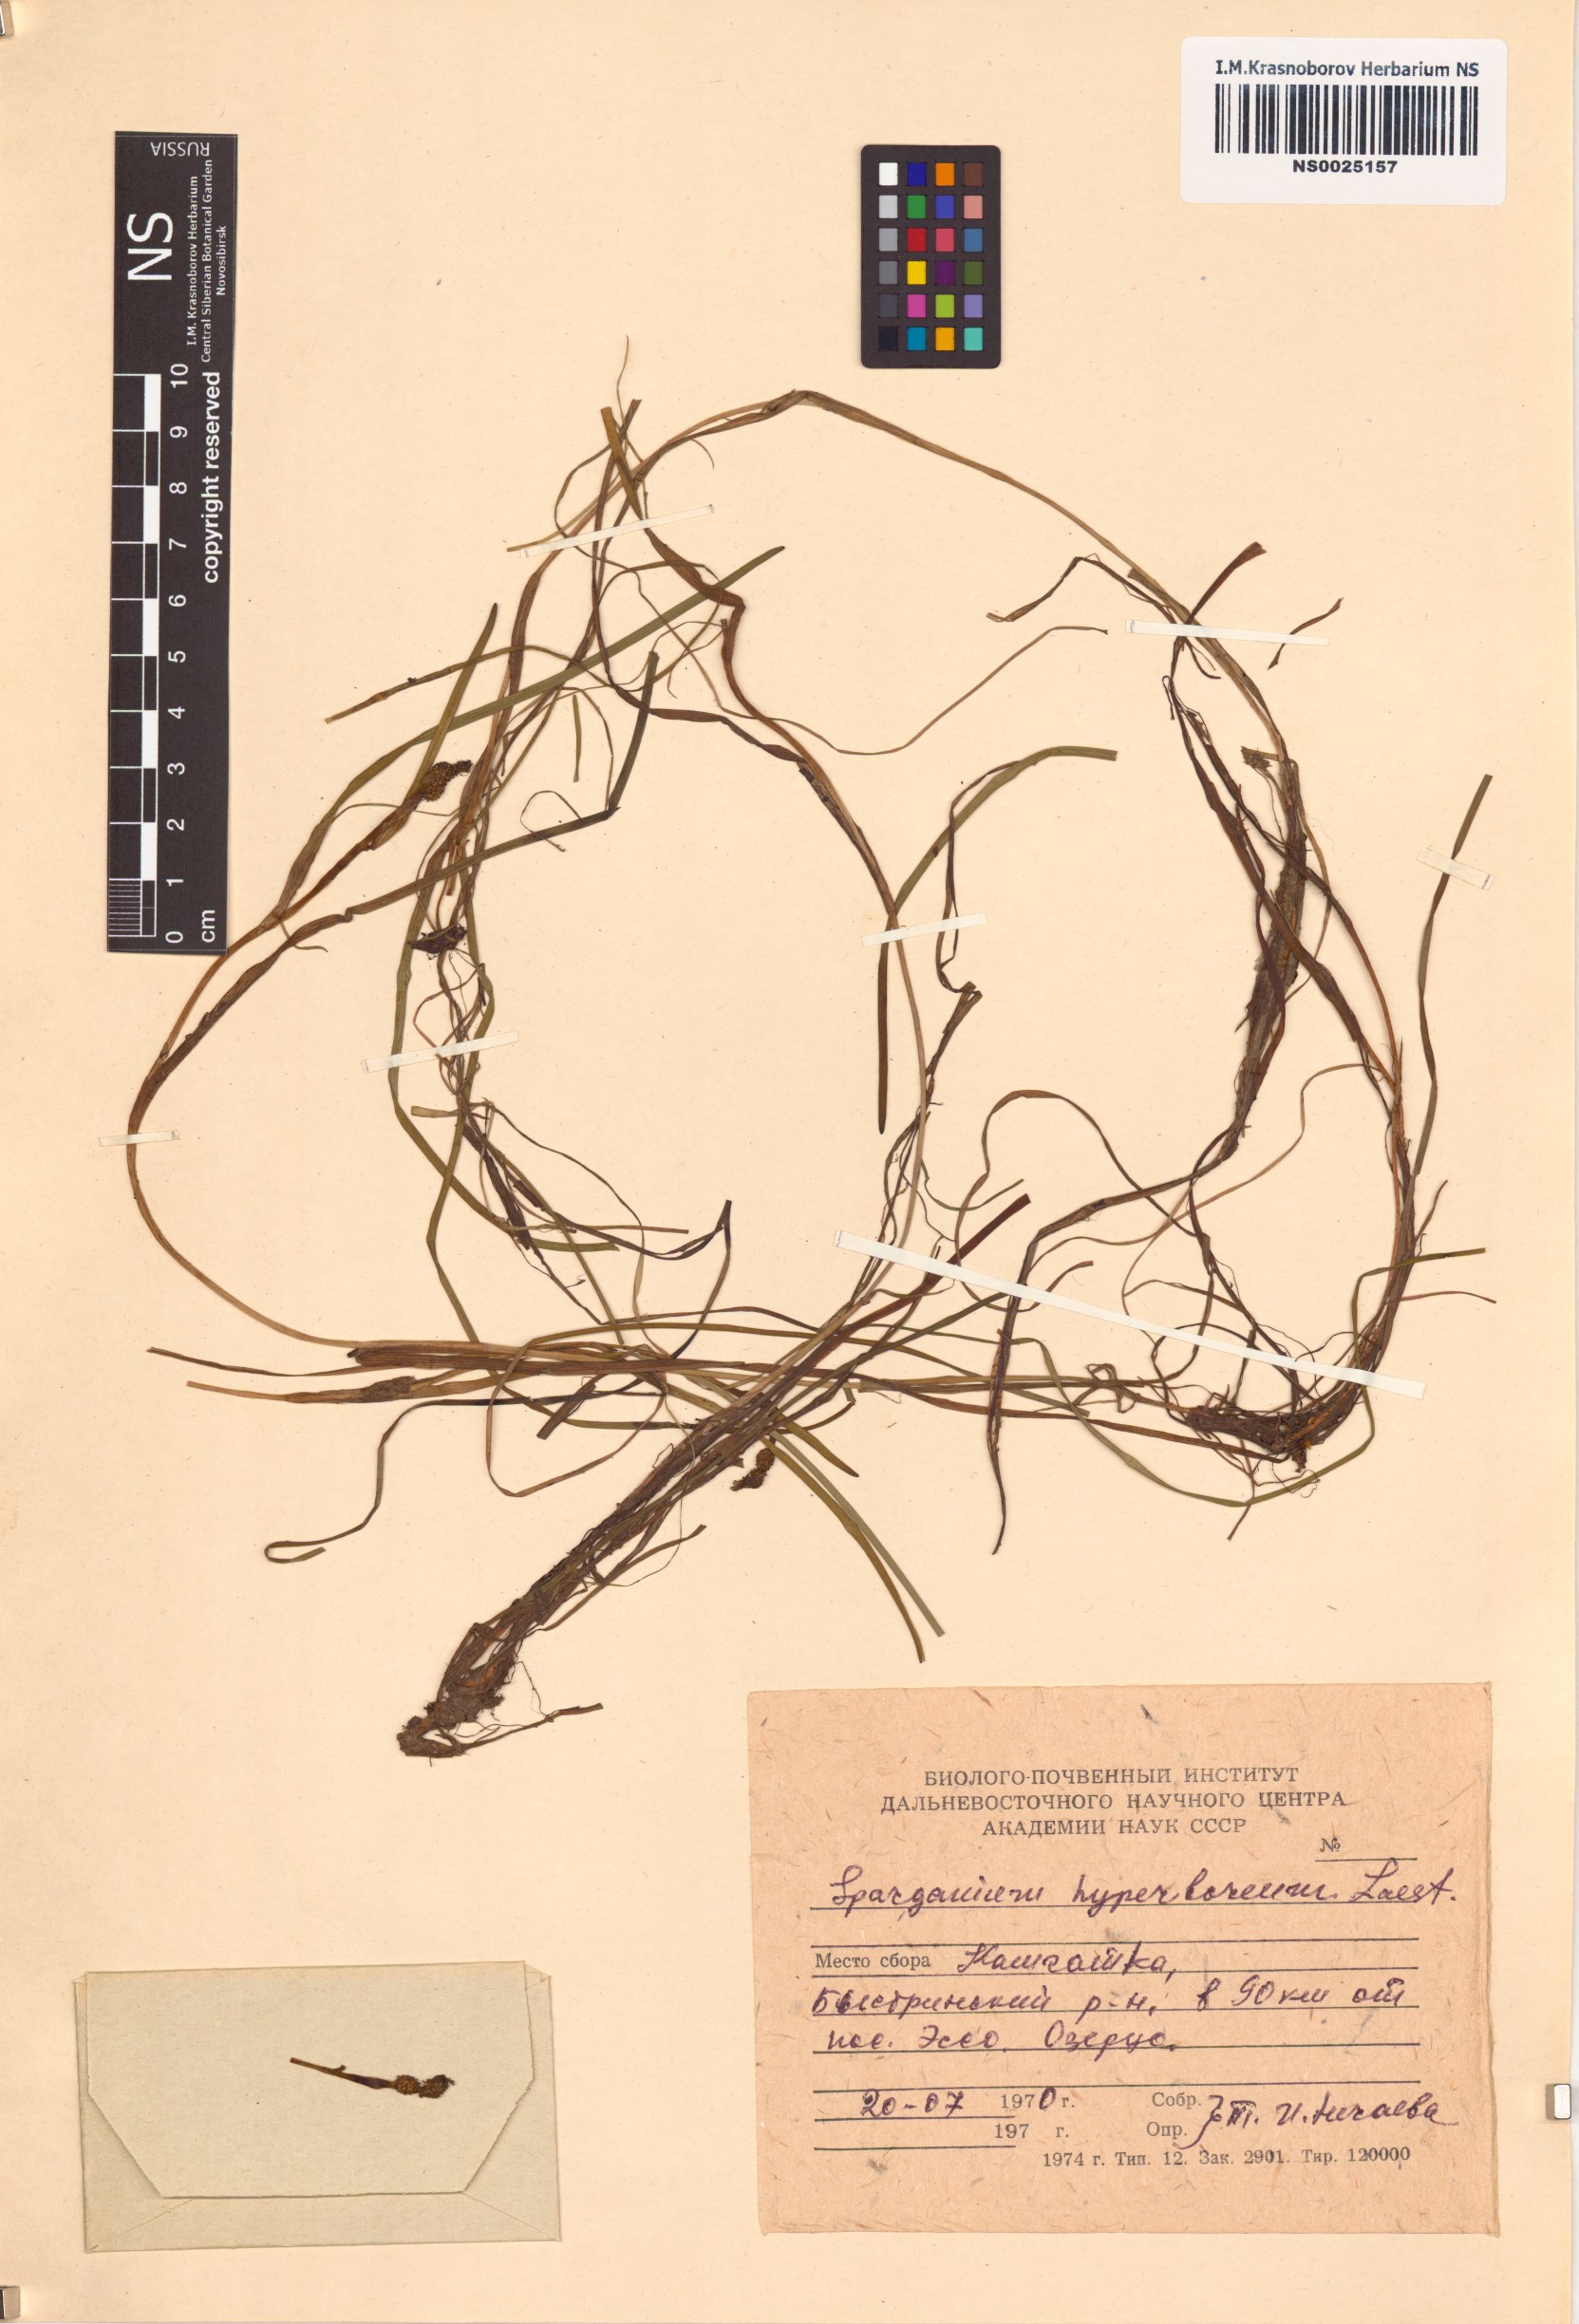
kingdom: Plantae
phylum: Tracheophyta
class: Liliopsida
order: Poales
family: Typhaceae
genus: Sparganium
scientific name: Sparganium hyperboreum
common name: Arctic burreed
